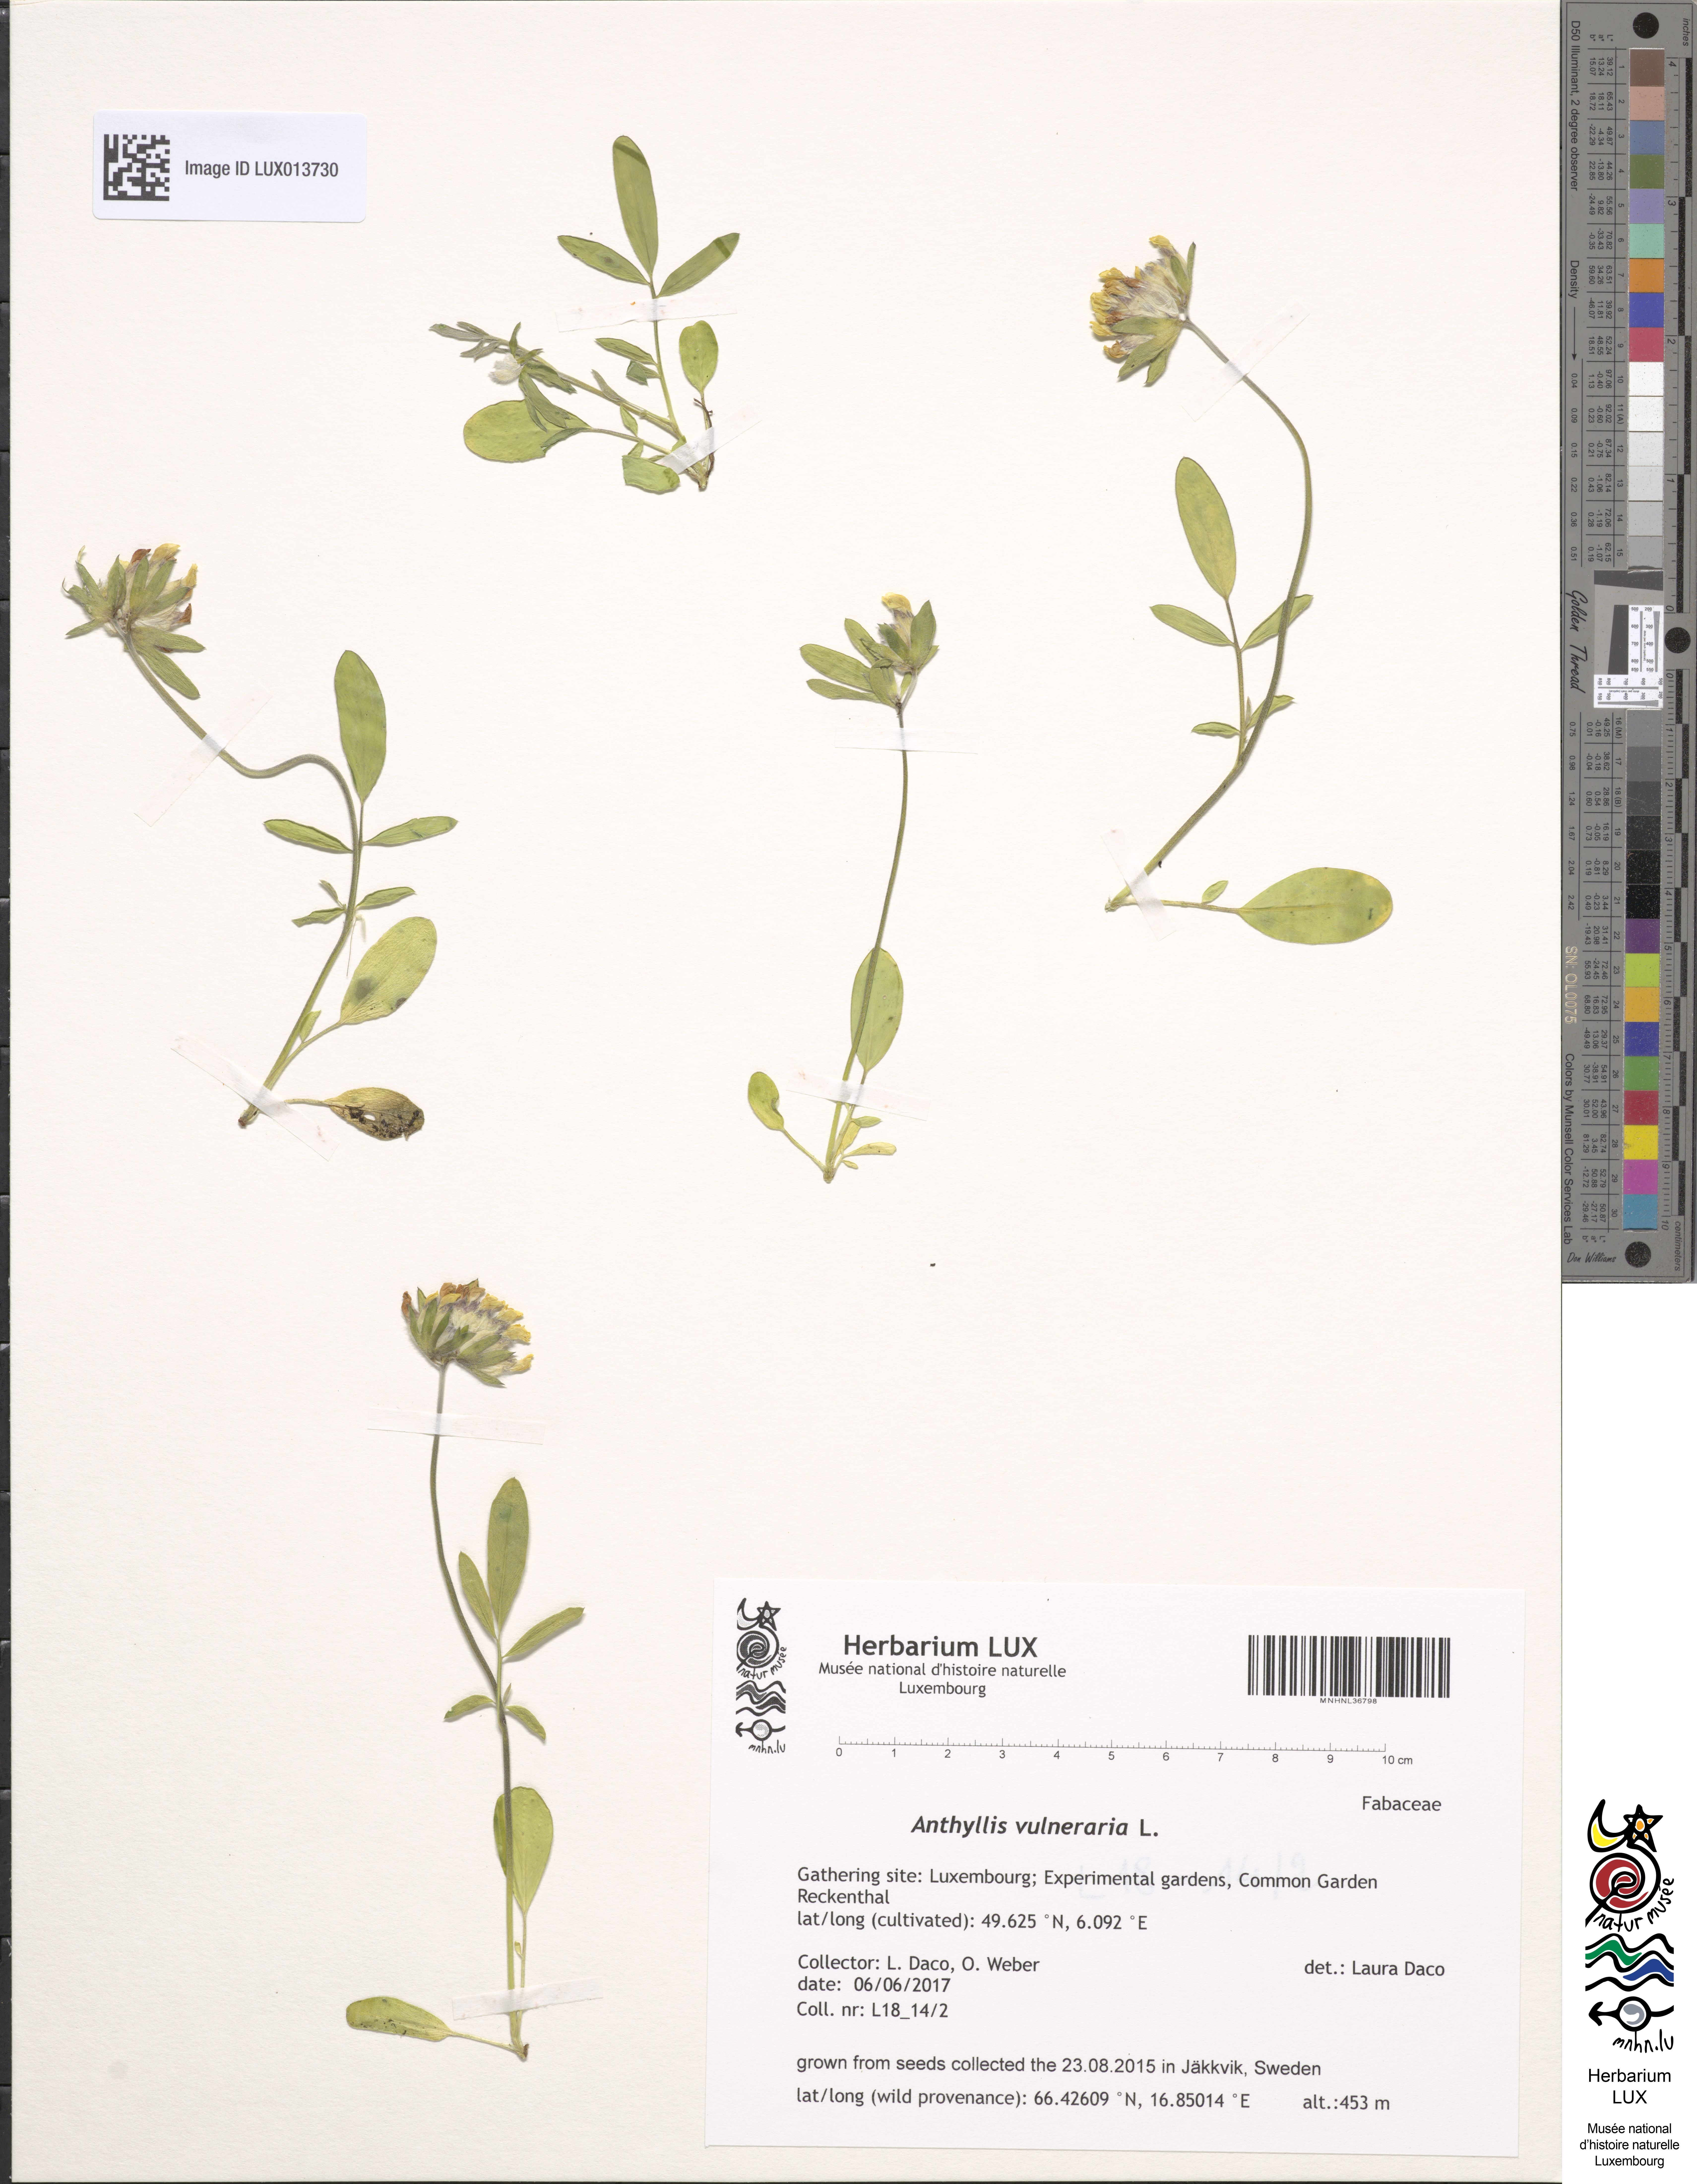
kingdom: Plantae
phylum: Tracheophyta
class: Magnoliopsida
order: Fabales
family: Fabaceae
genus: Anthyllis
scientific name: Anthyllis vulneraria
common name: Kidney vetch
